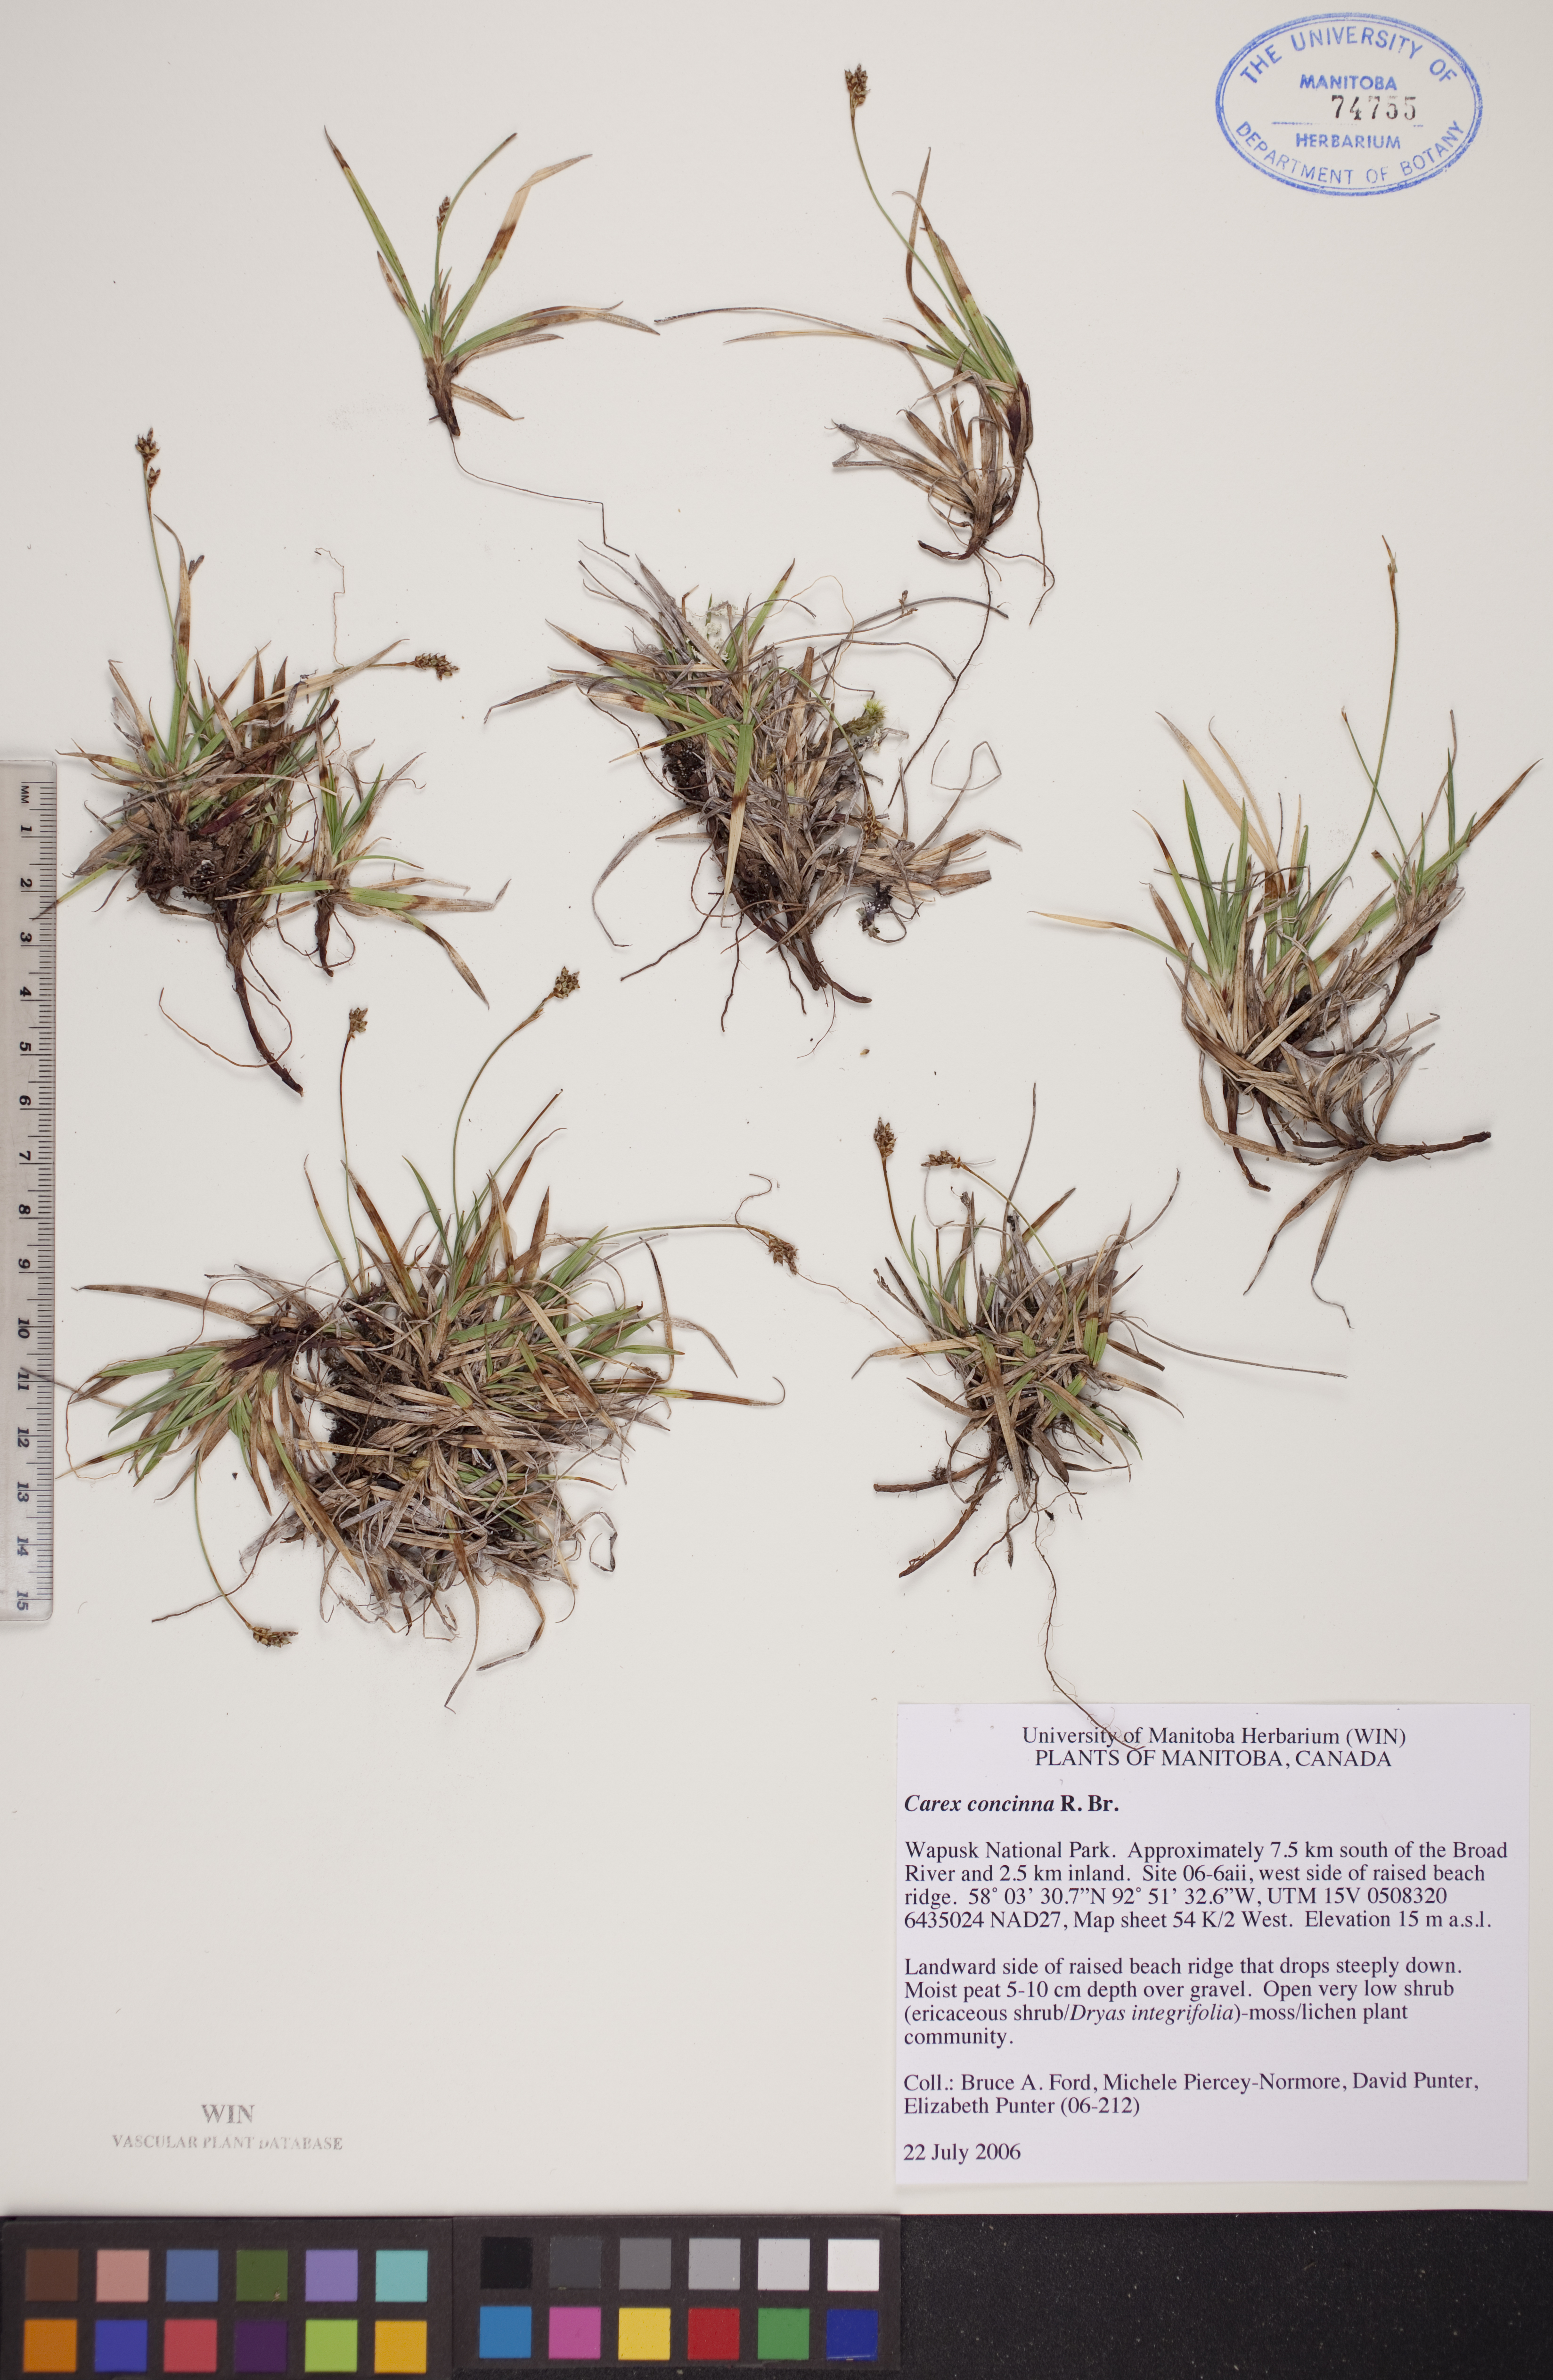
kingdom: Plantae
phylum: Tracheophyta
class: Liliopsida
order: Poales
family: Cyperaceae
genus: Carex
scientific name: Carex concinna
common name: Beautiful sedge
